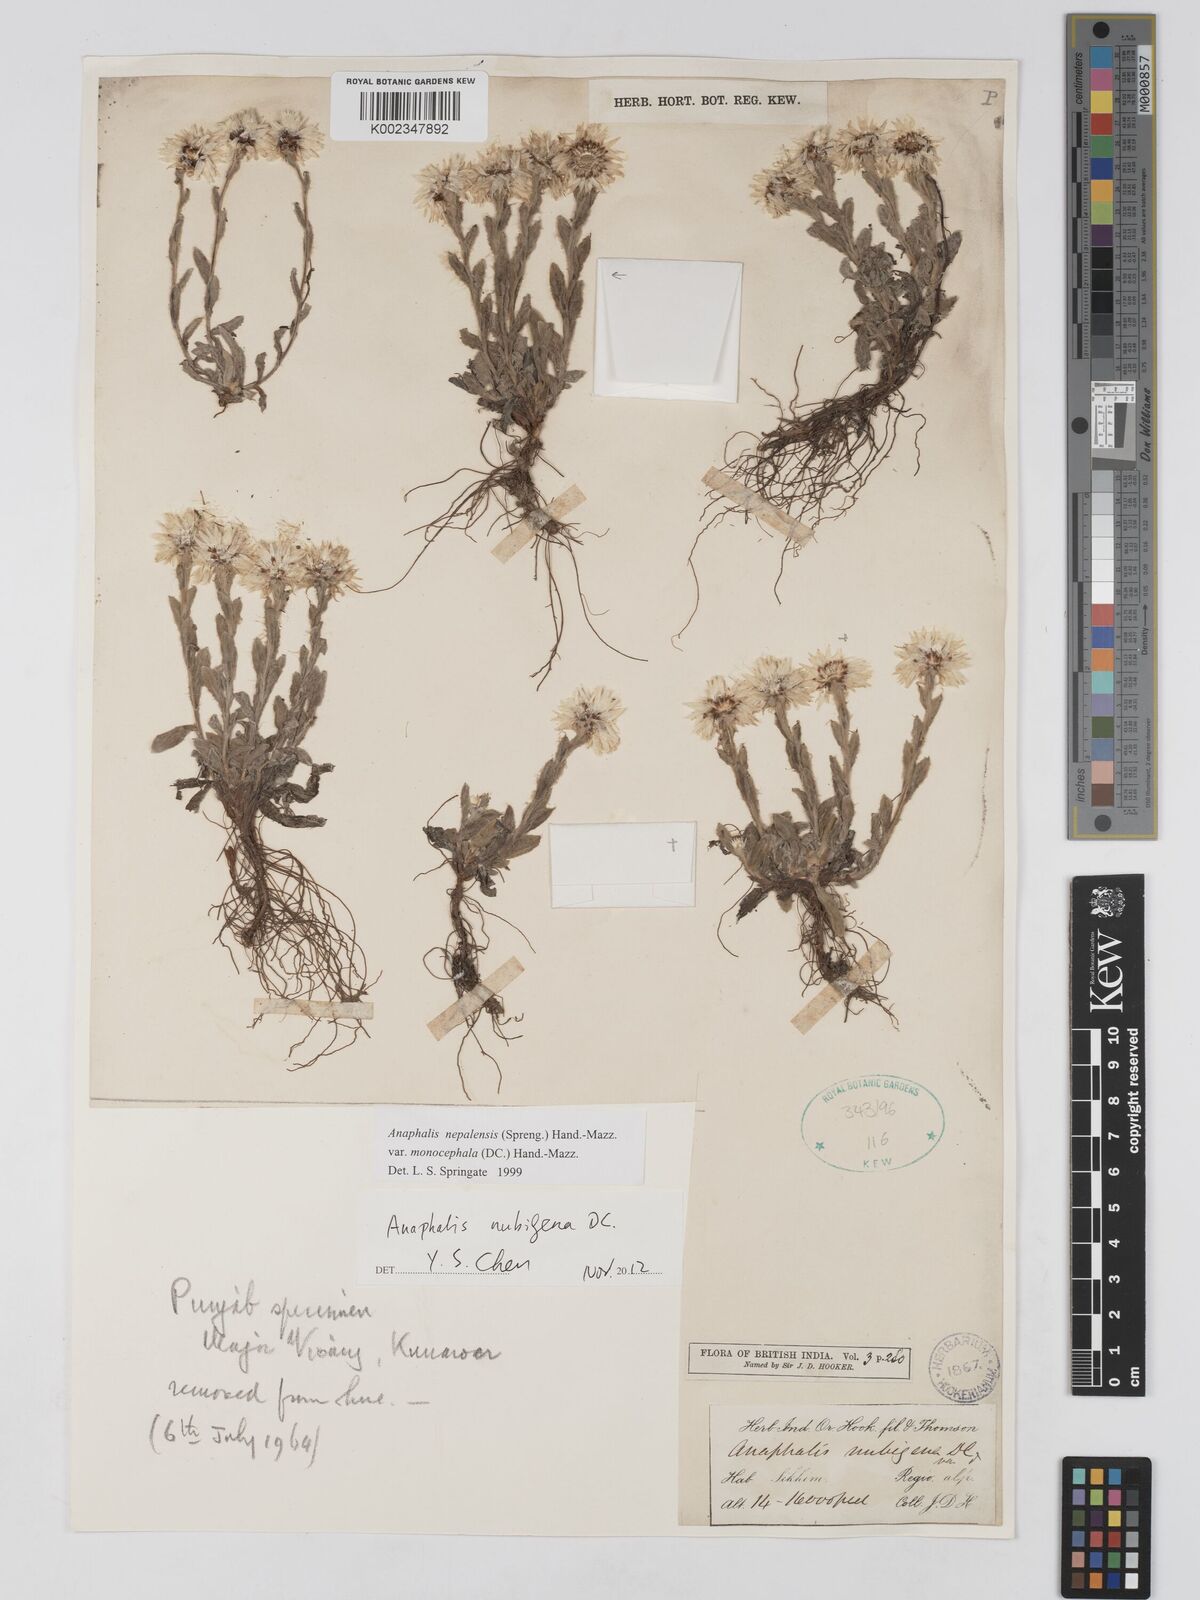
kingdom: Plantae
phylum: Tracheophyta
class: Magnoliopsida
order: Asterales
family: Asteraceae
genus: Anaphalis
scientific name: Anaphalis nepalensis
